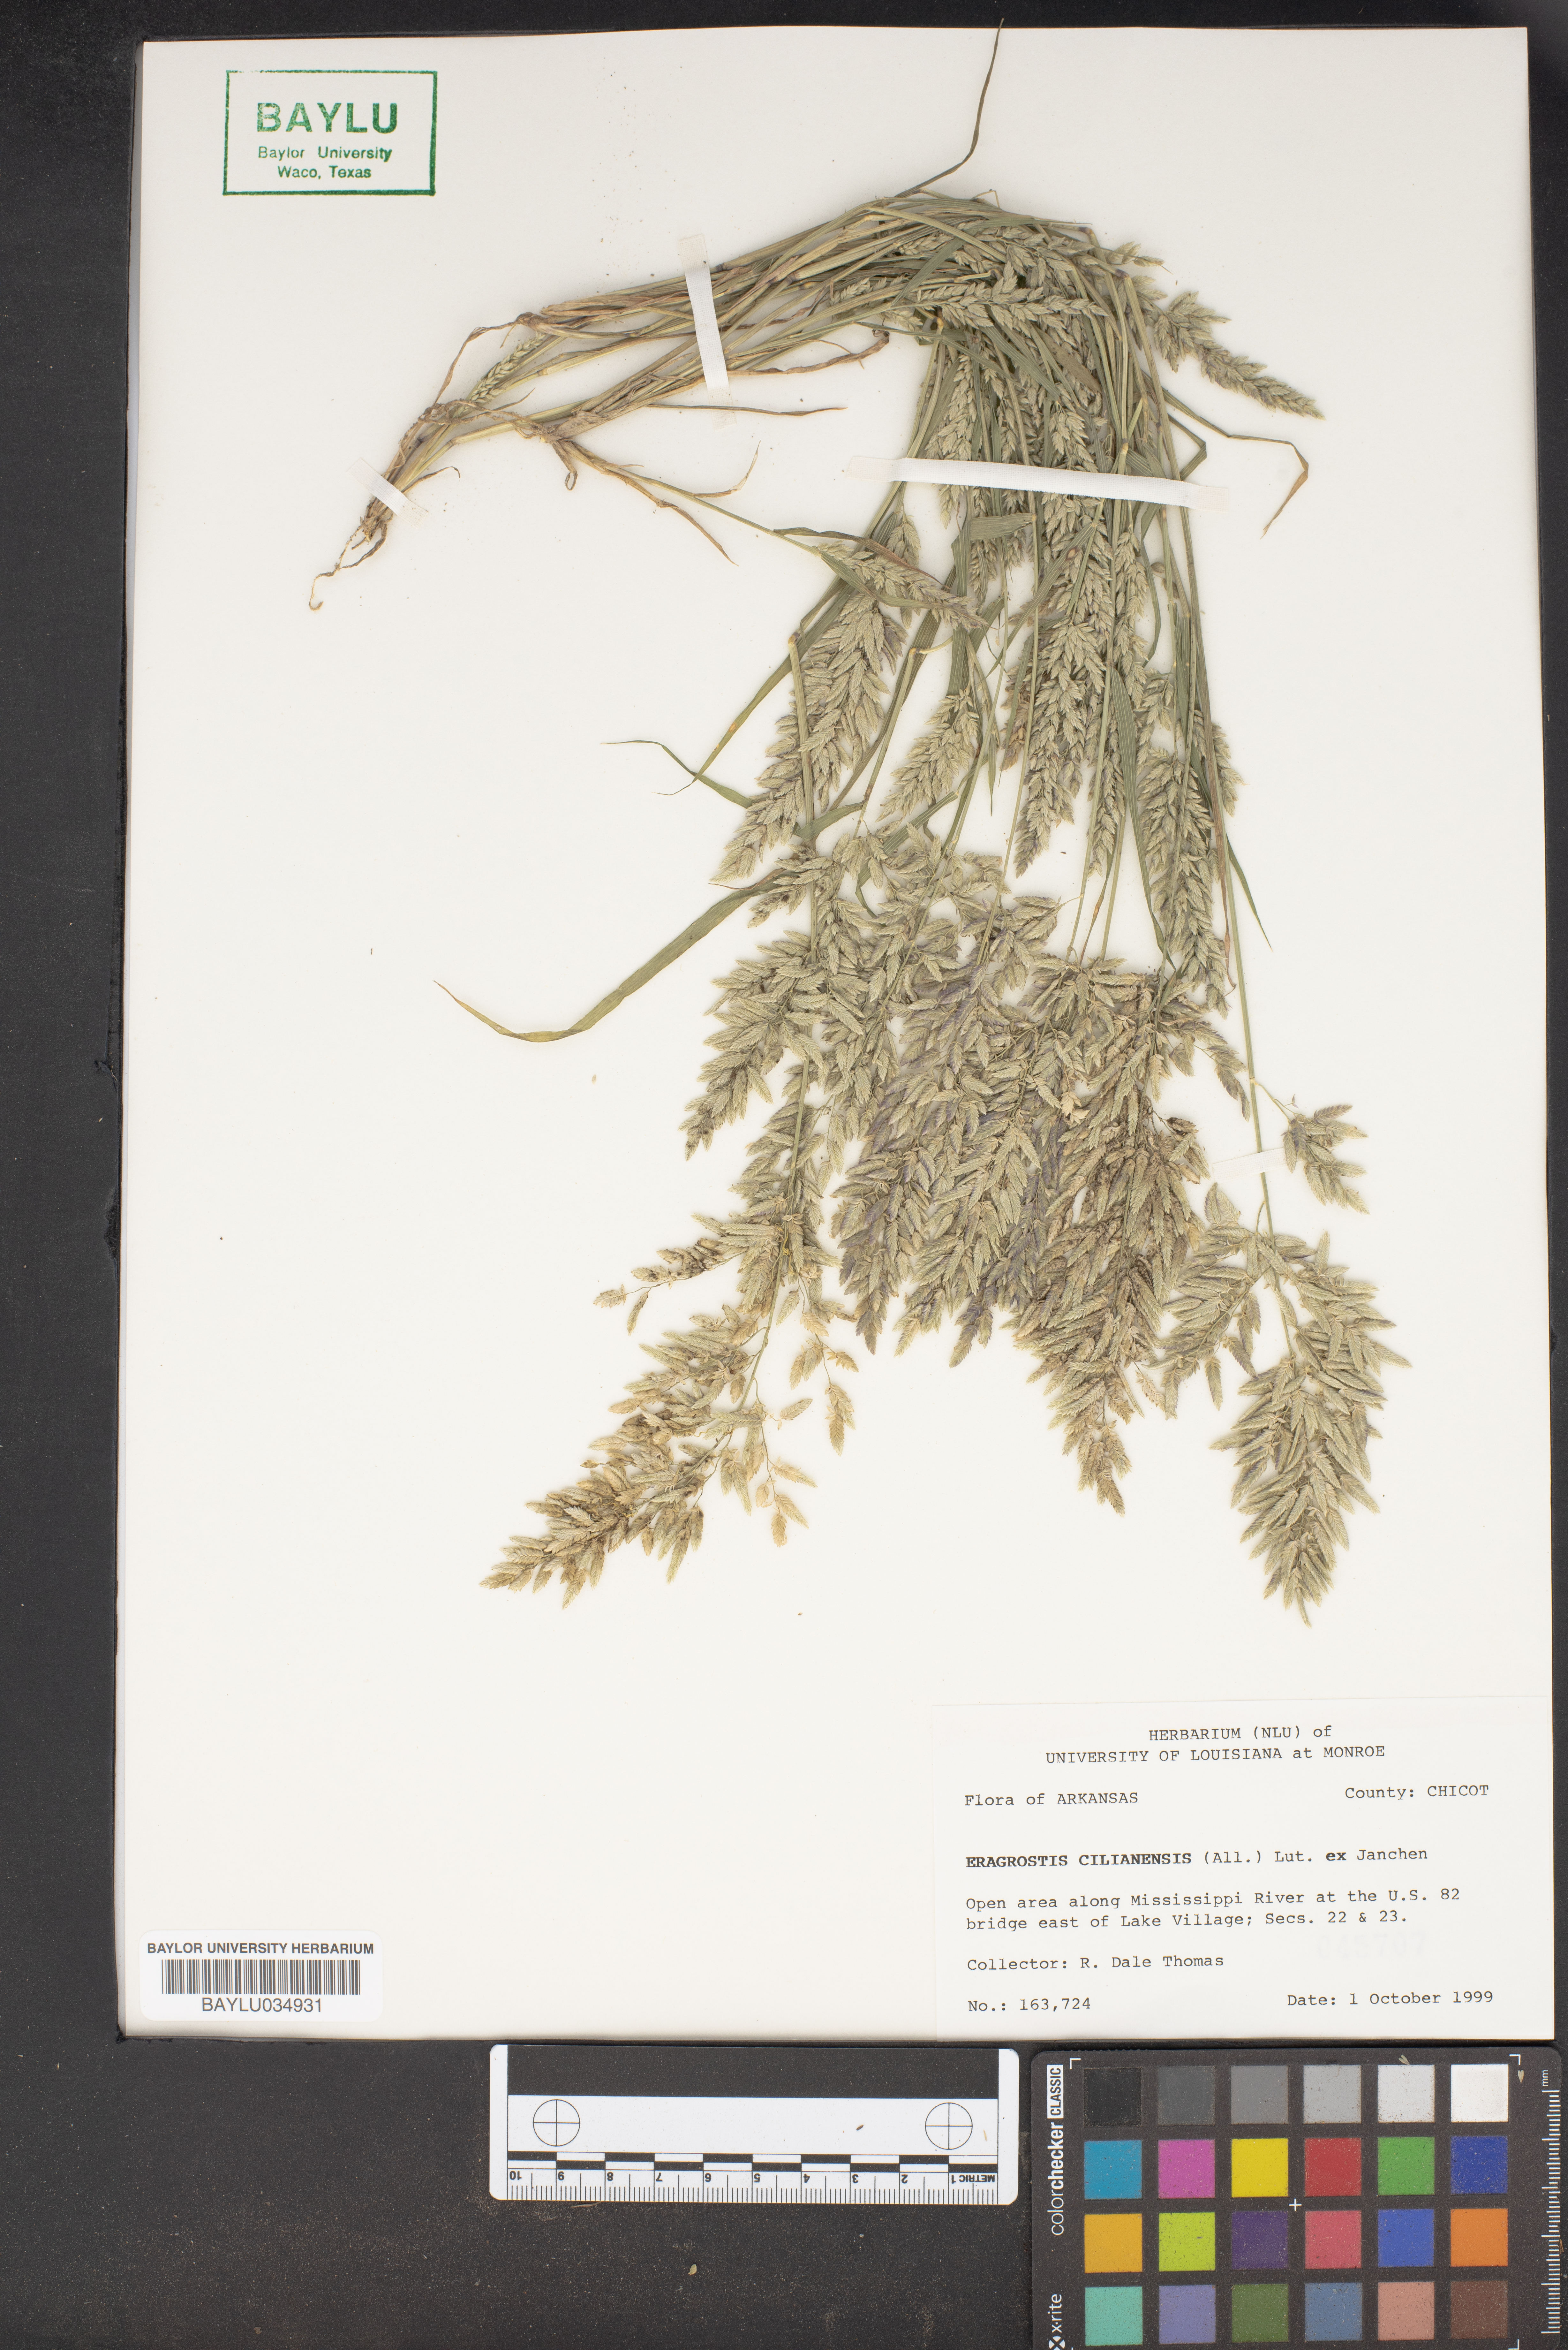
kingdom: Plantae
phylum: Tracheophyta
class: Liliopsida
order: Poales
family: Poaceae
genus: Eragrostis
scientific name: Eragrostis cilianensis
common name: Stinkgrass
